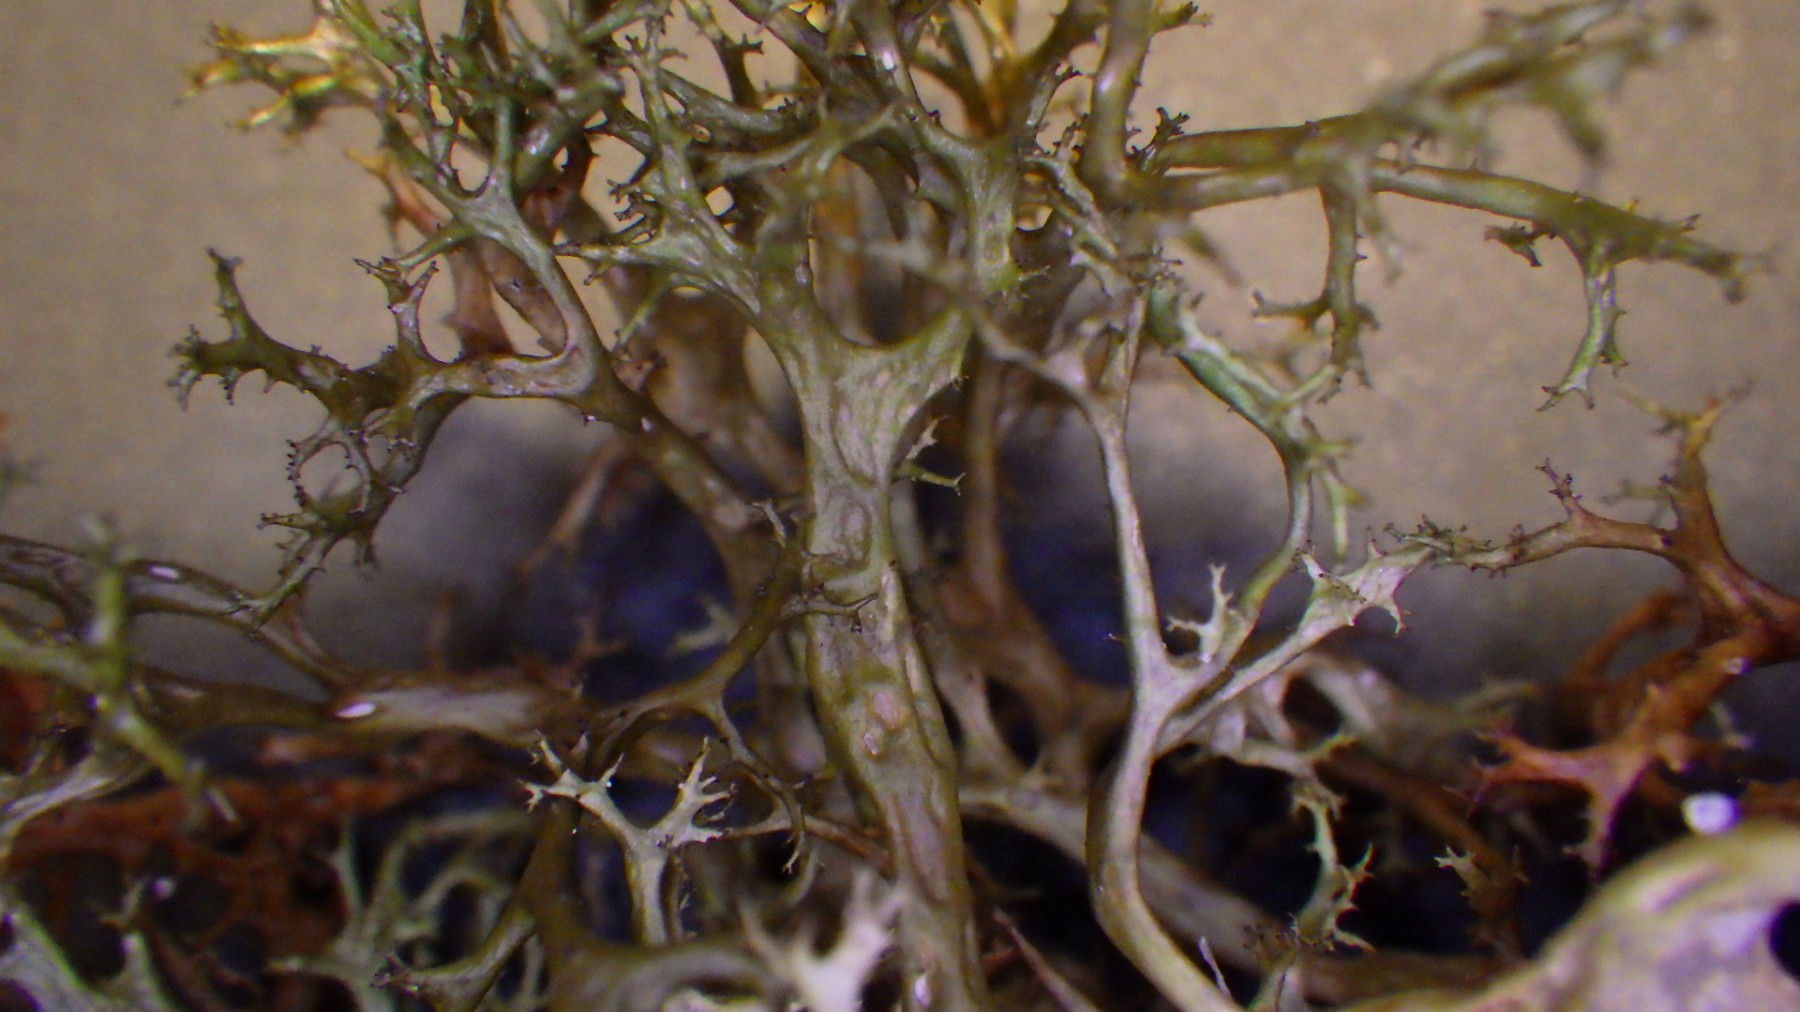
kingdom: Fungi
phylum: Ascomycota
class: Lecanoromycetes
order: Lecanorales
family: Parmeliaceae
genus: Cetraria
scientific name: Cetraria aculeata
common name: grubet tjørnelav
